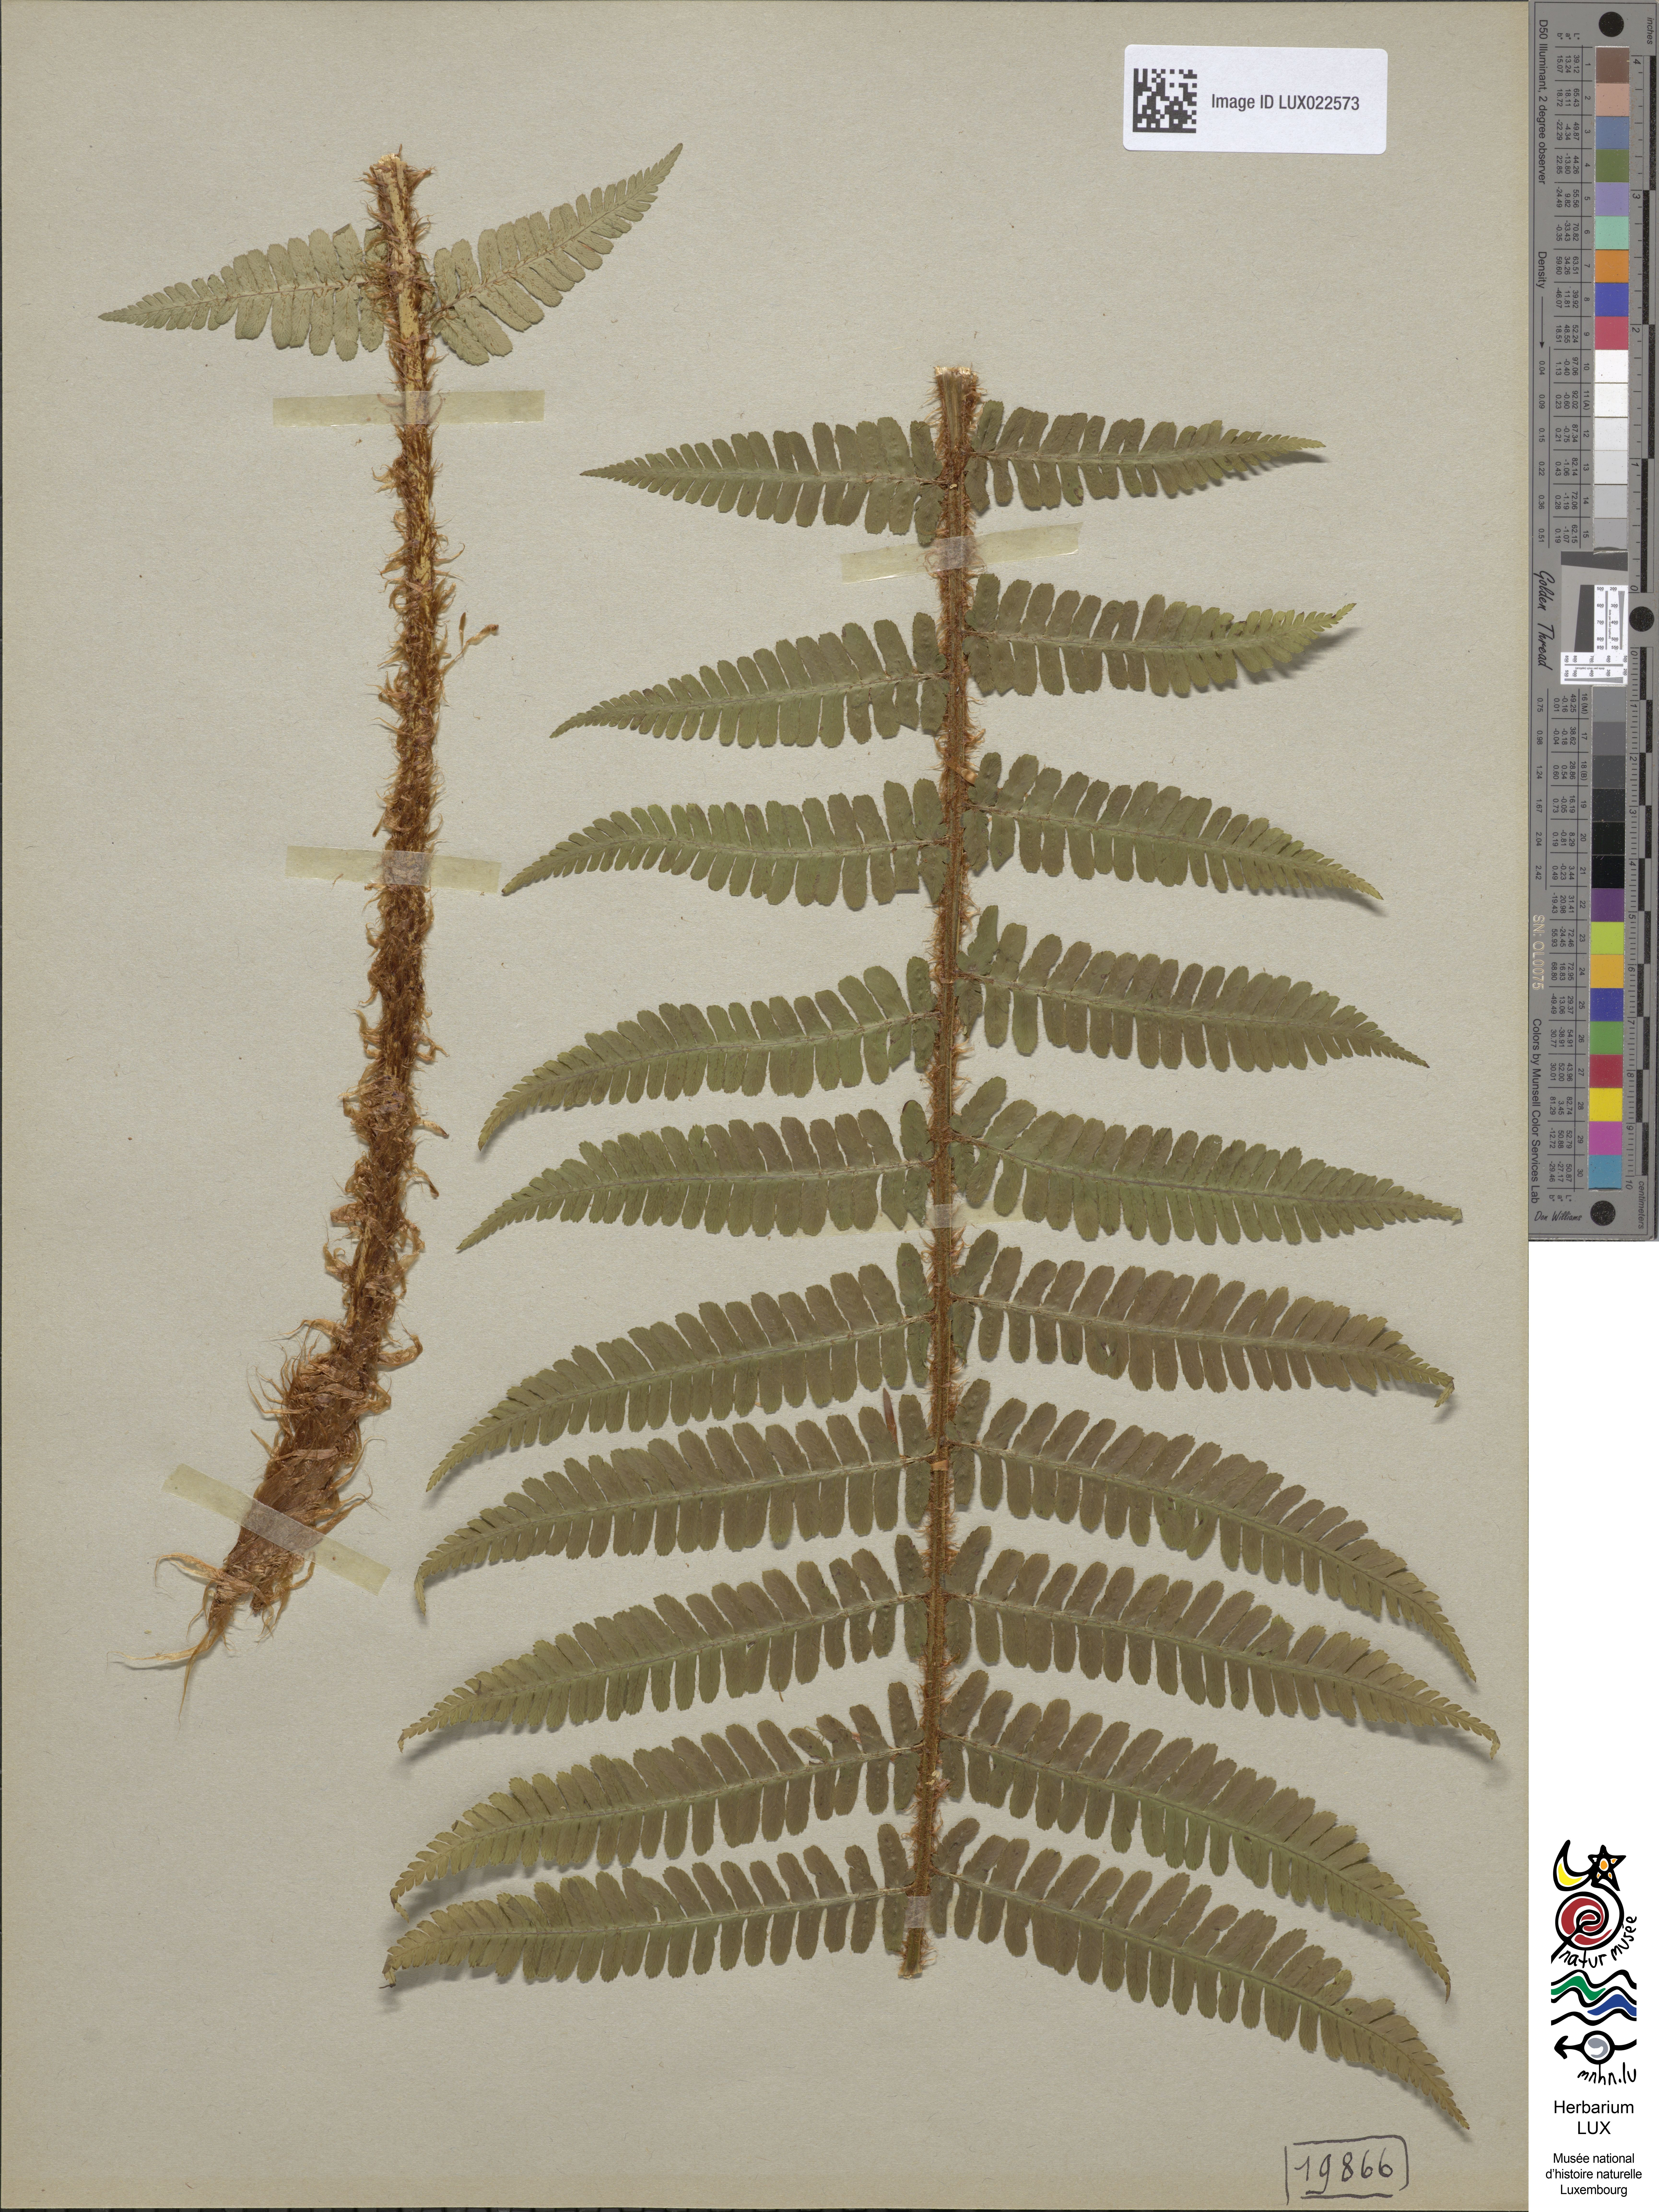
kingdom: Plantae
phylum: Tracheophyta
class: Polypodiopsida
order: Polypodiales
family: Dryopteridaceae
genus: Dryopteris
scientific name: Dryopteris borreri
